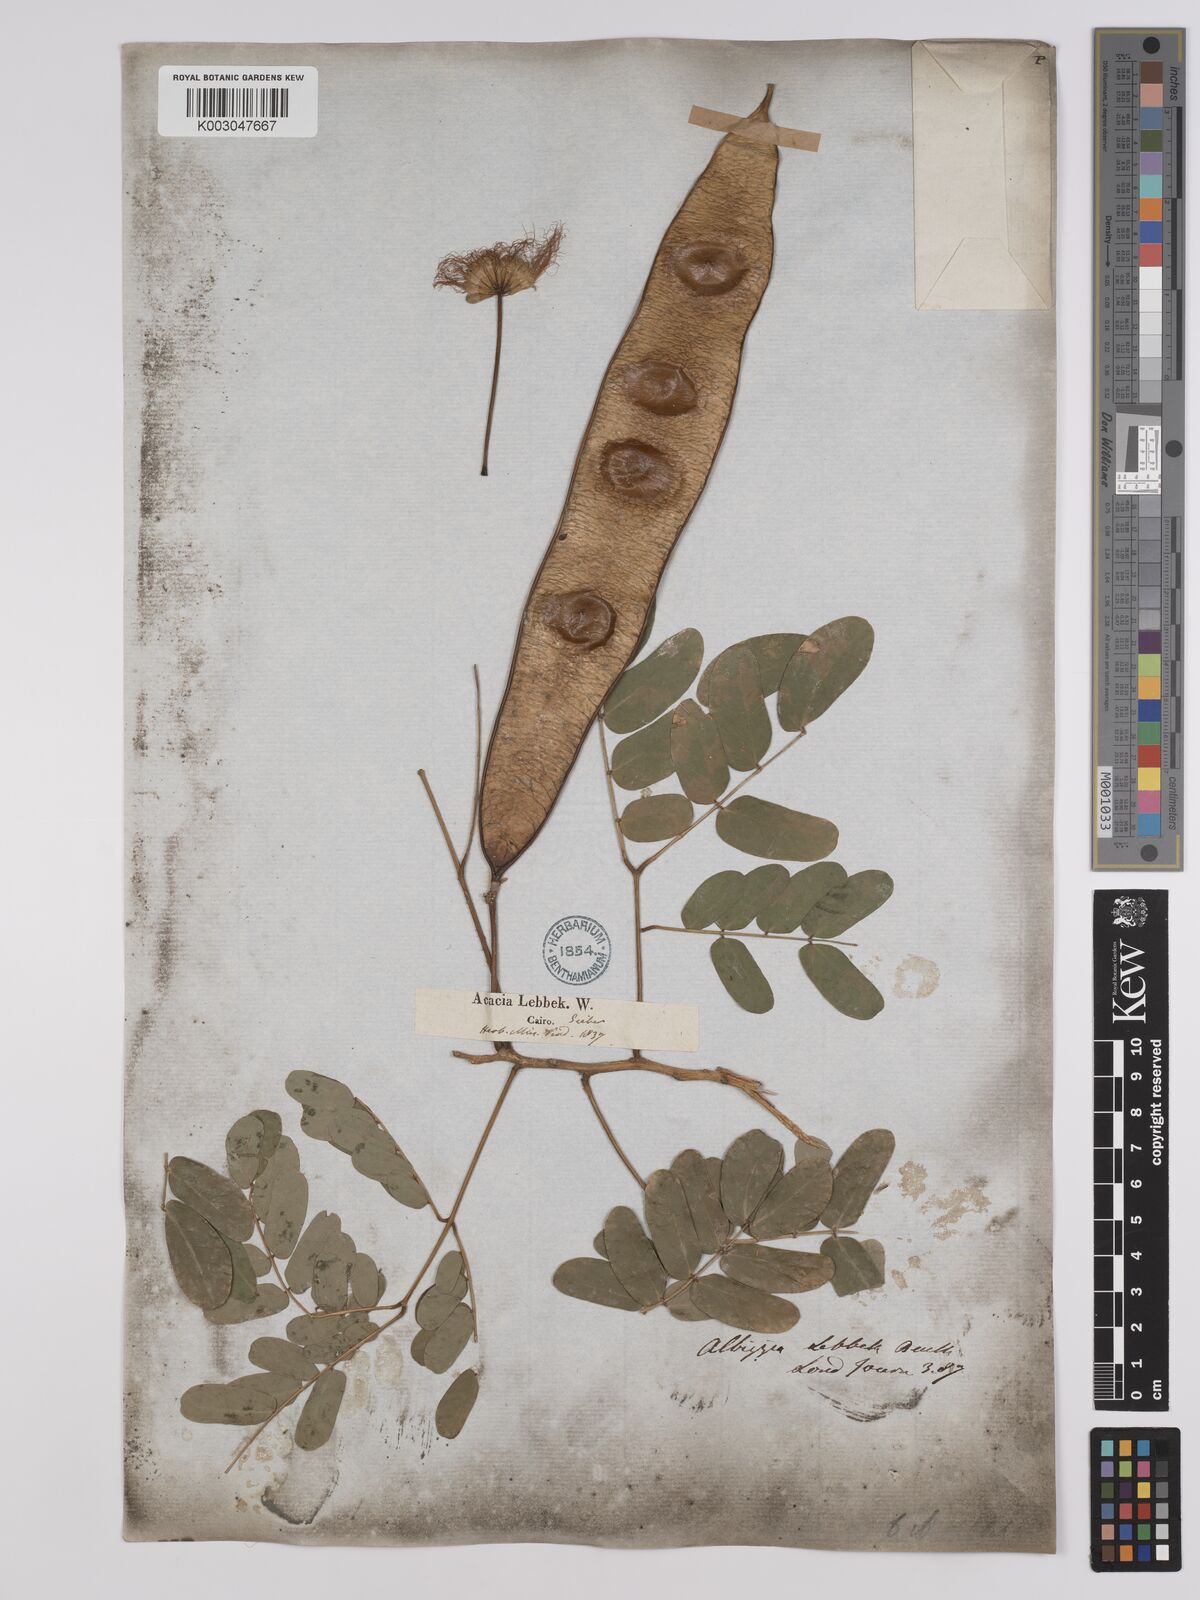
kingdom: Plantae
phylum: Tracheophyta
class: Magnoliopsida
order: Fabales
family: Fabaceae
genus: Albizia
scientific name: Albizia lebbeck
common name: Woman's tongue
